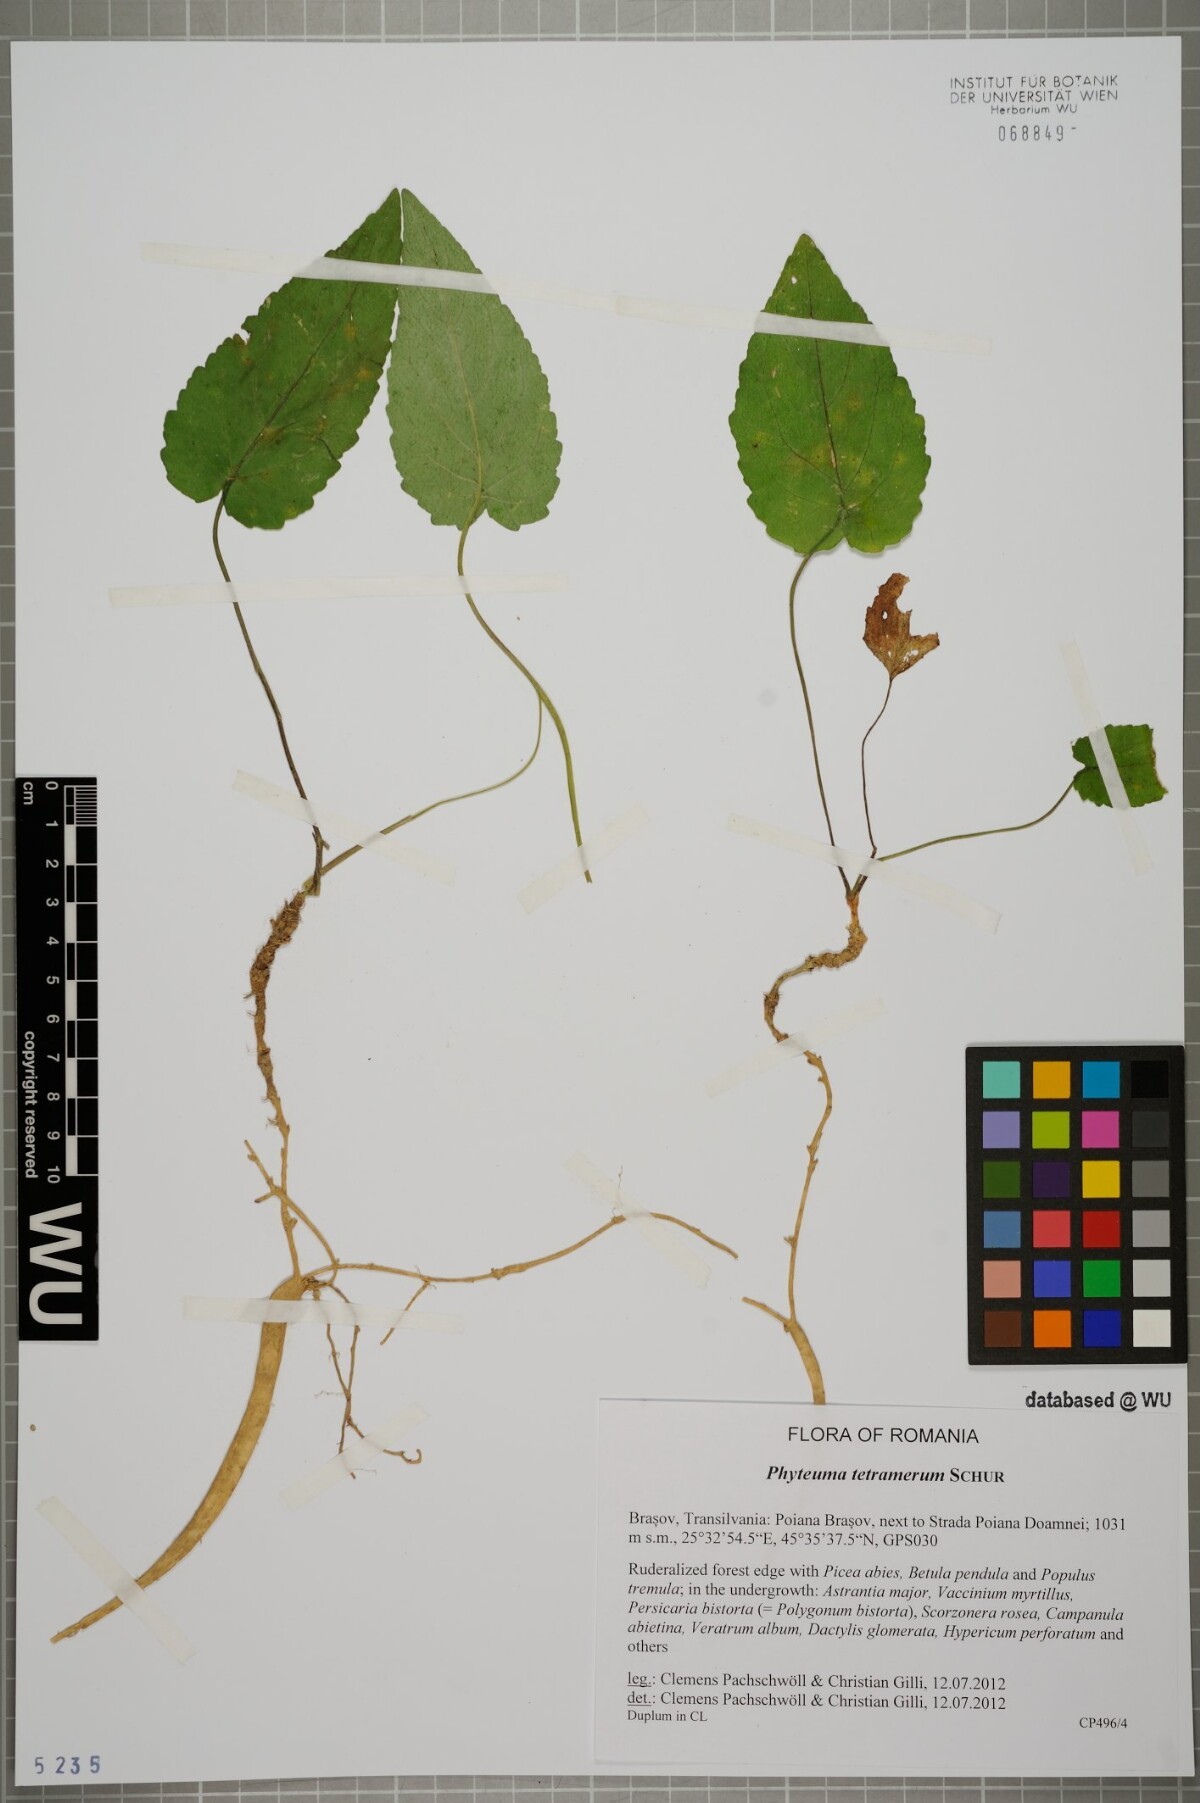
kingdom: Plantae
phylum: Tracheophyta
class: Magnoliopsida
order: Asterales
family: Campanulaceae
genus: Phyteuma
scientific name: Phyteuma tetramerum
